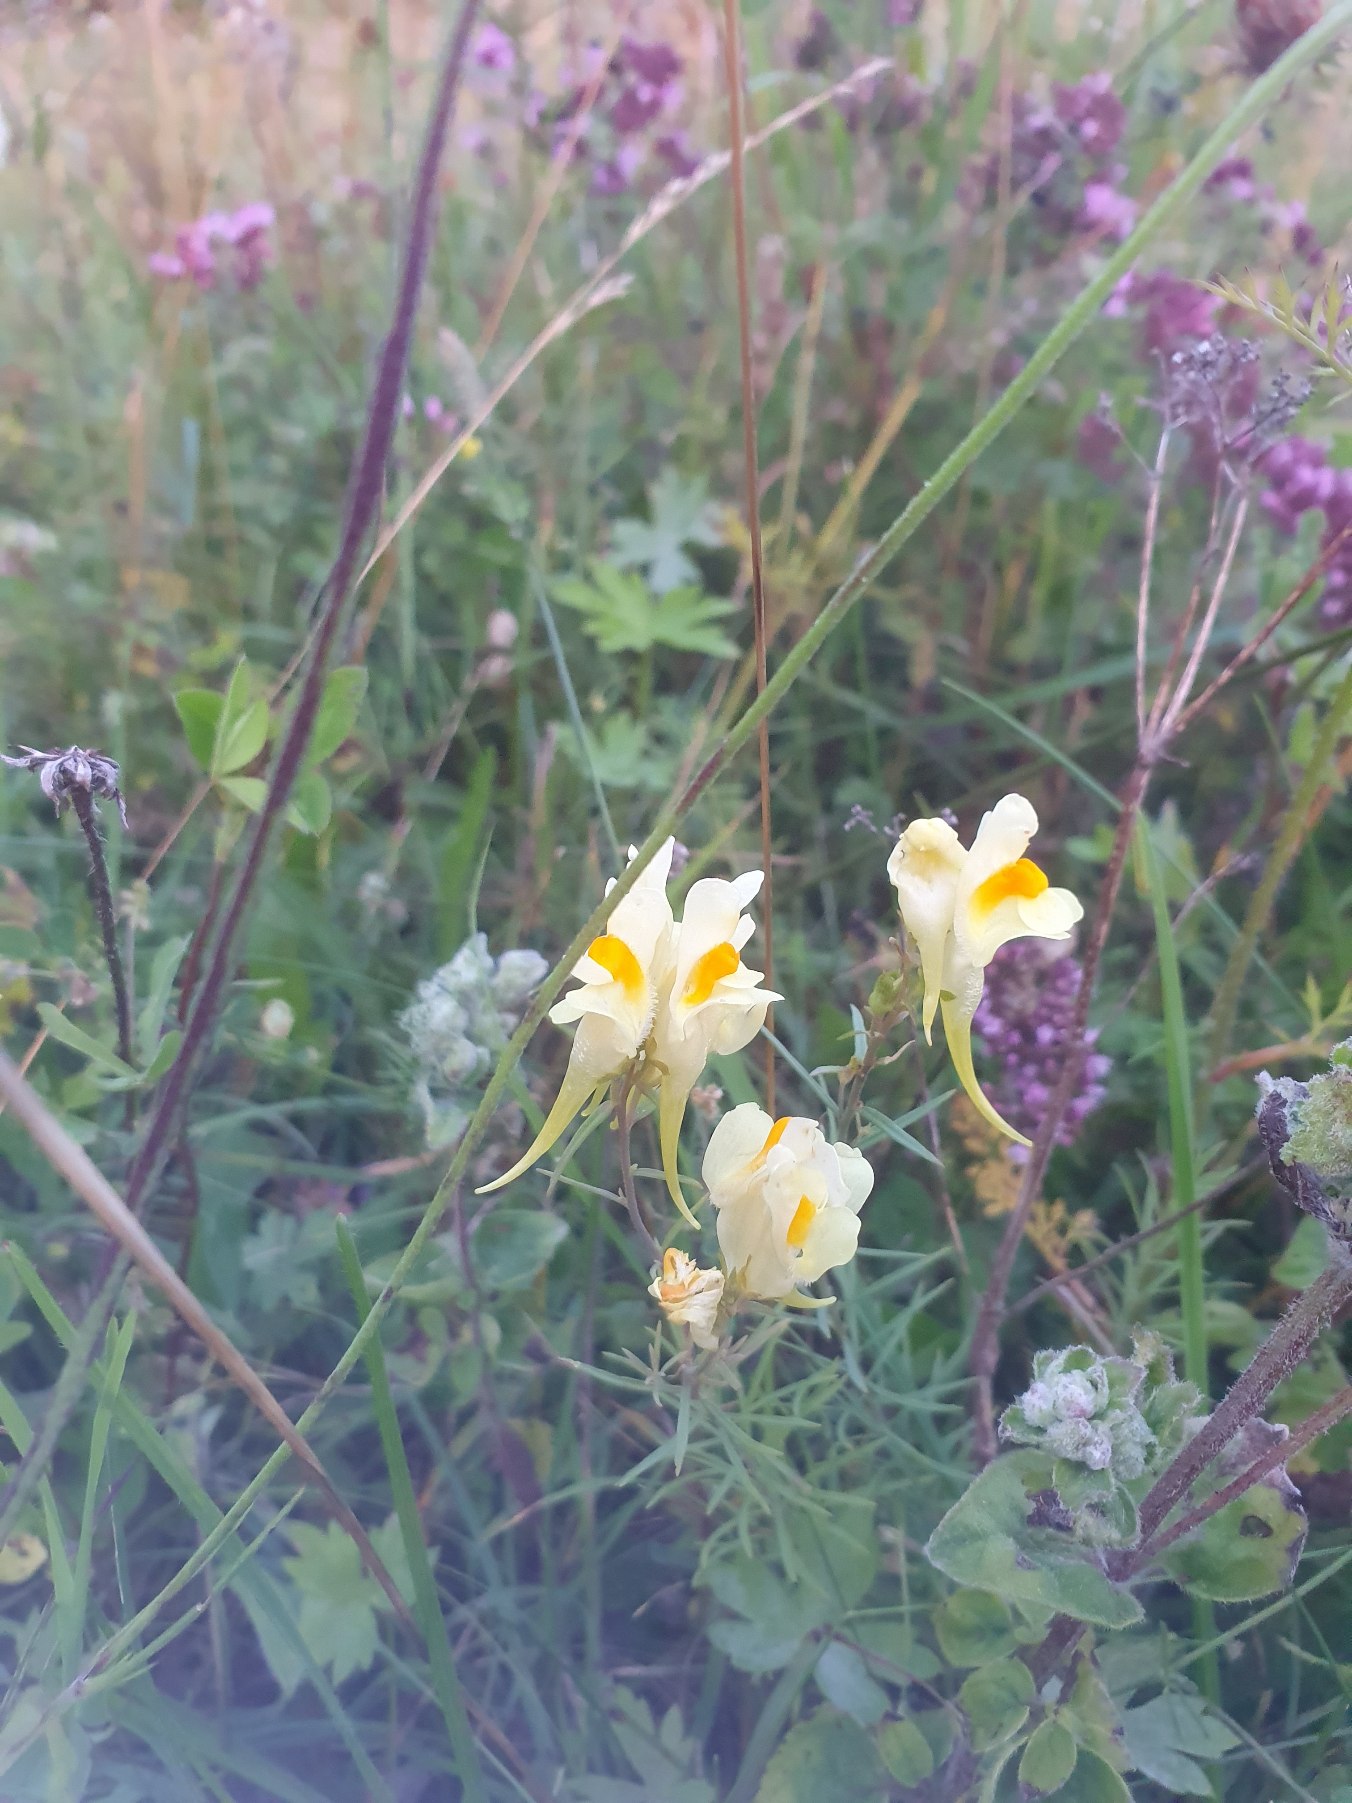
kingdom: Plantae
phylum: Tracheophyta
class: Magnoliopsida
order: Lamiales
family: Plantaginaceae
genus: Linaria
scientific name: Linaria vulgaris
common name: Almindelig torskemund
